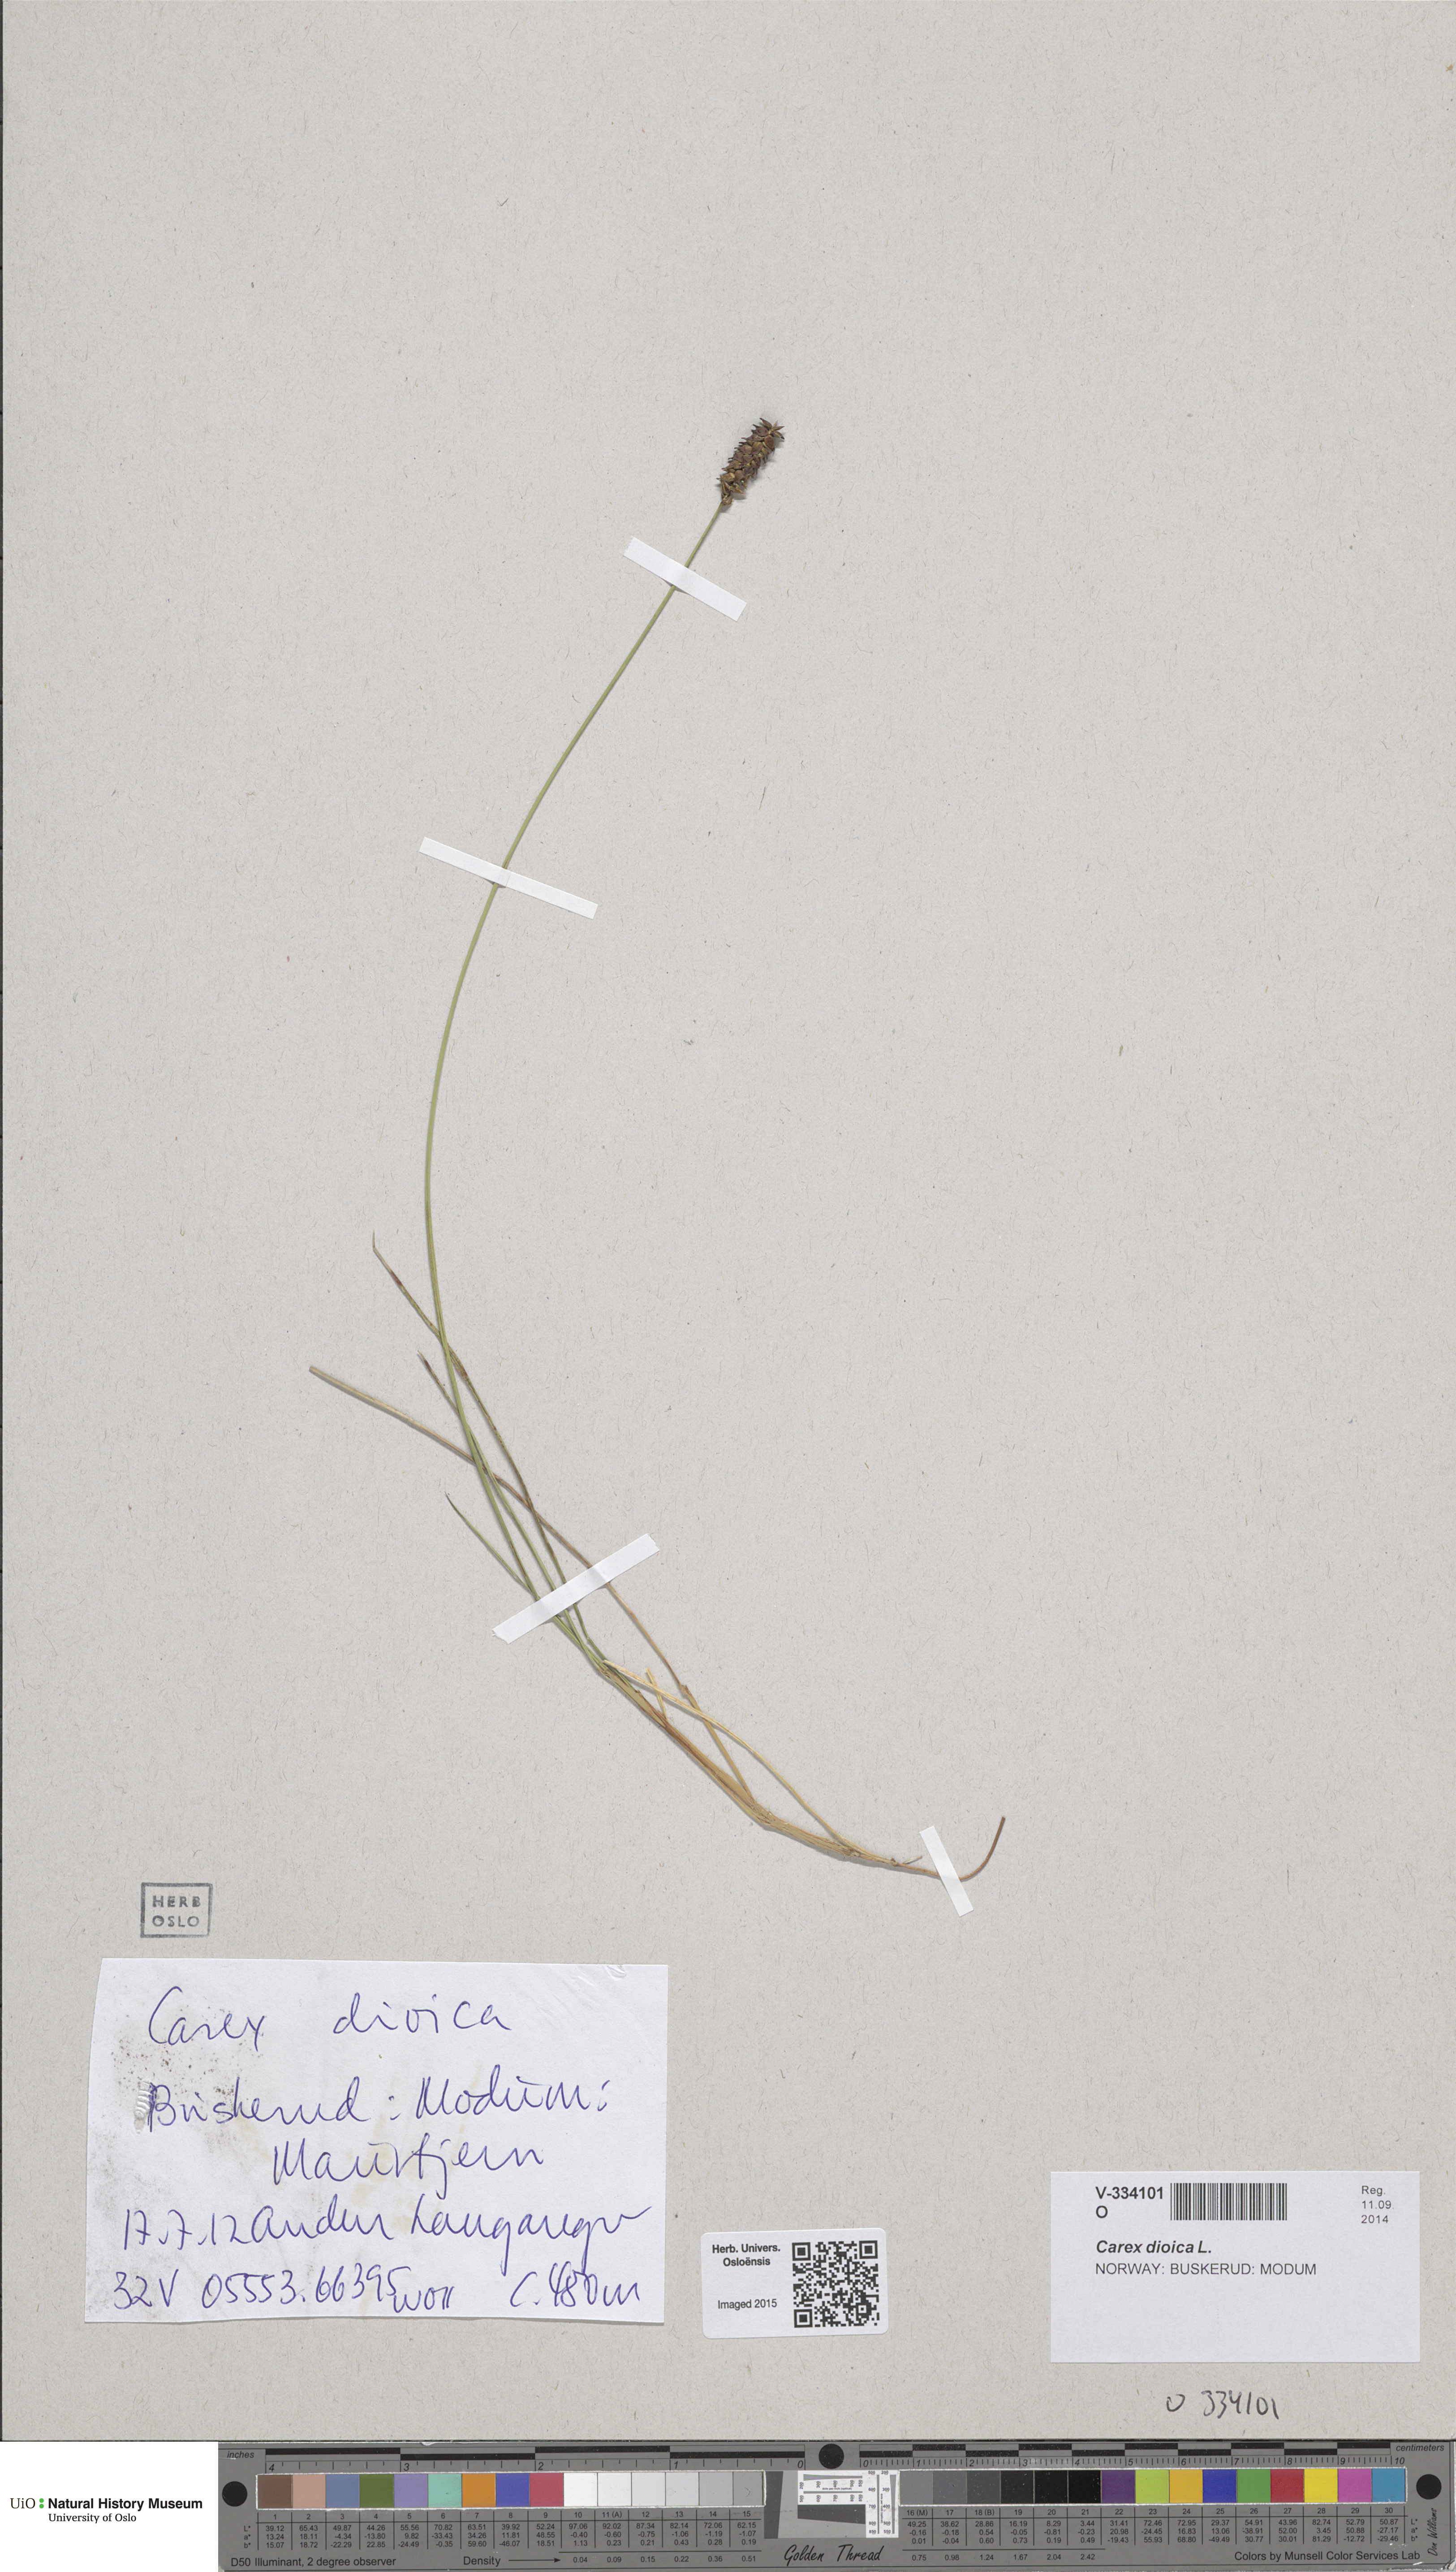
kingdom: Plantae
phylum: Tracheophyta
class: Liliopsida
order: Poales
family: Cyperaceae
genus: Carex
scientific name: Carex dioica
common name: Dioecious sedge
